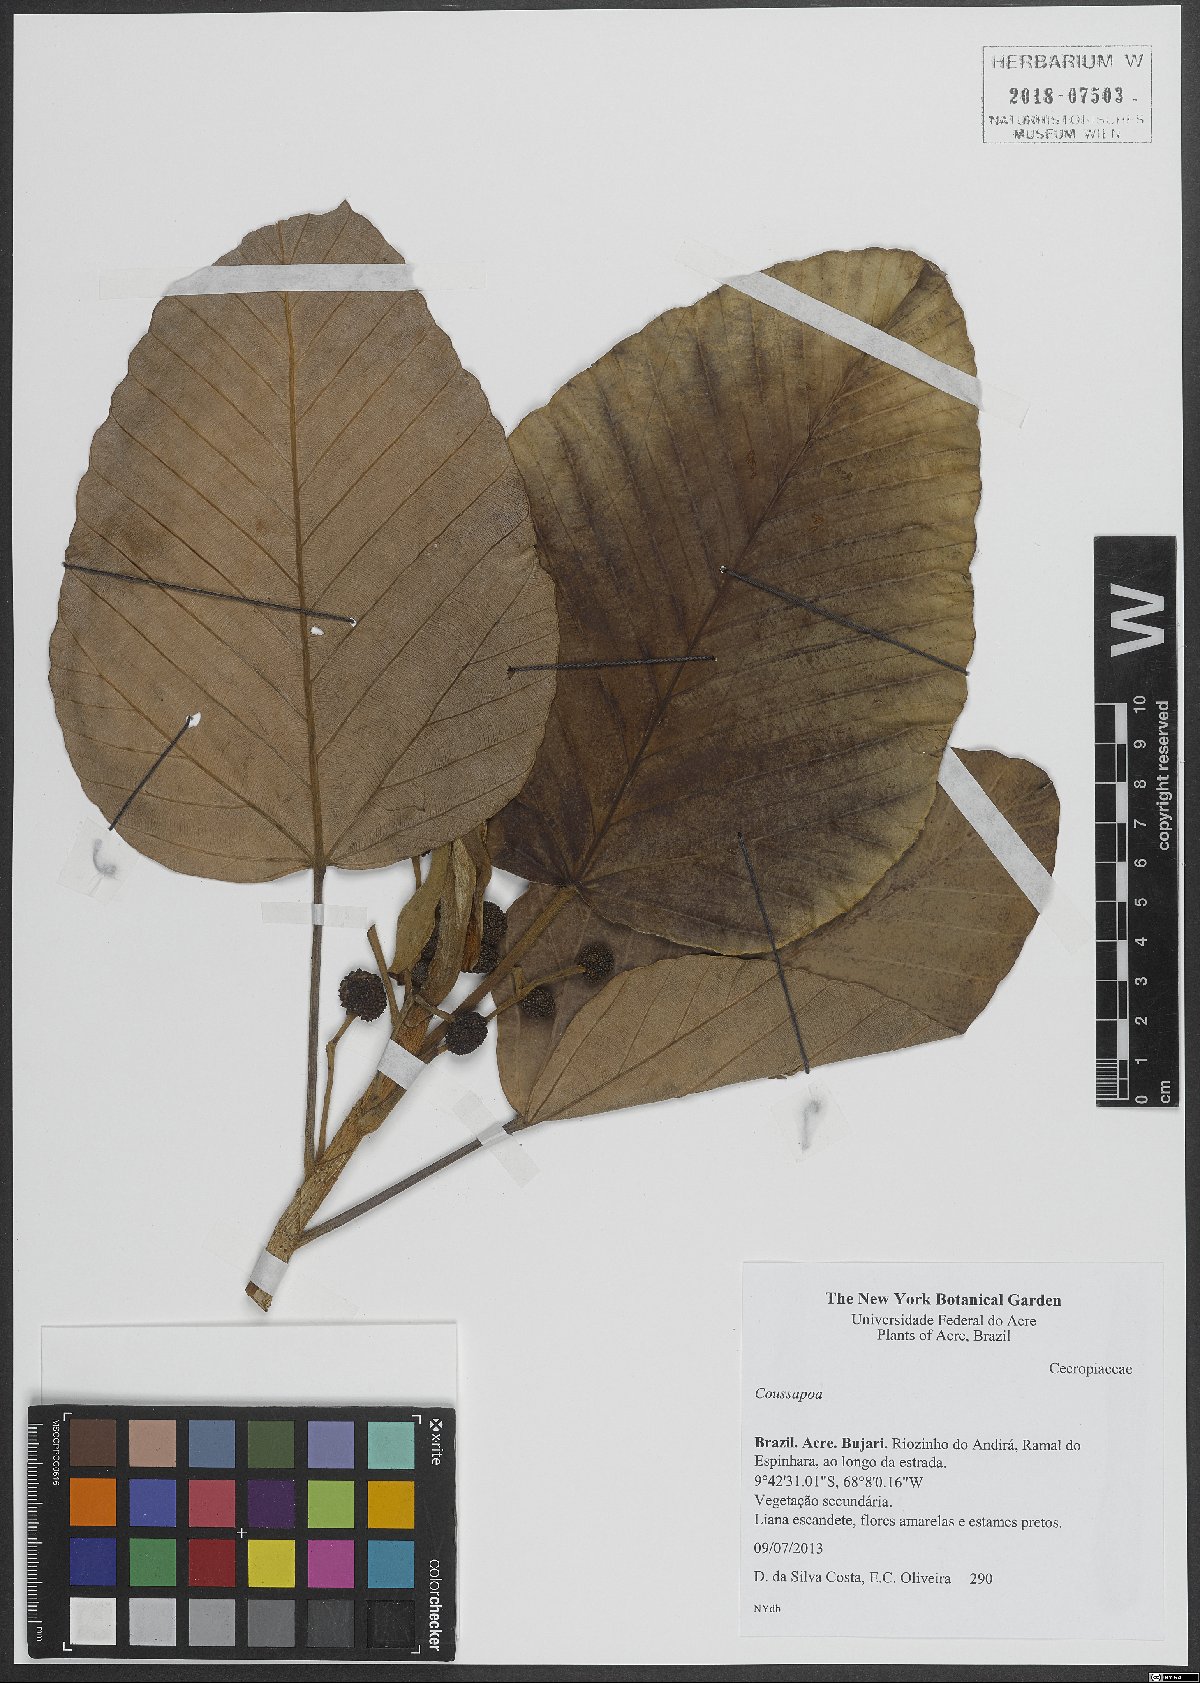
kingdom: Plantae
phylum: Tracheophyta
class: Magnoliopsida
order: Rosales
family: Urticaceae
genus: Coussapoa
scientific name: Coussapoa
